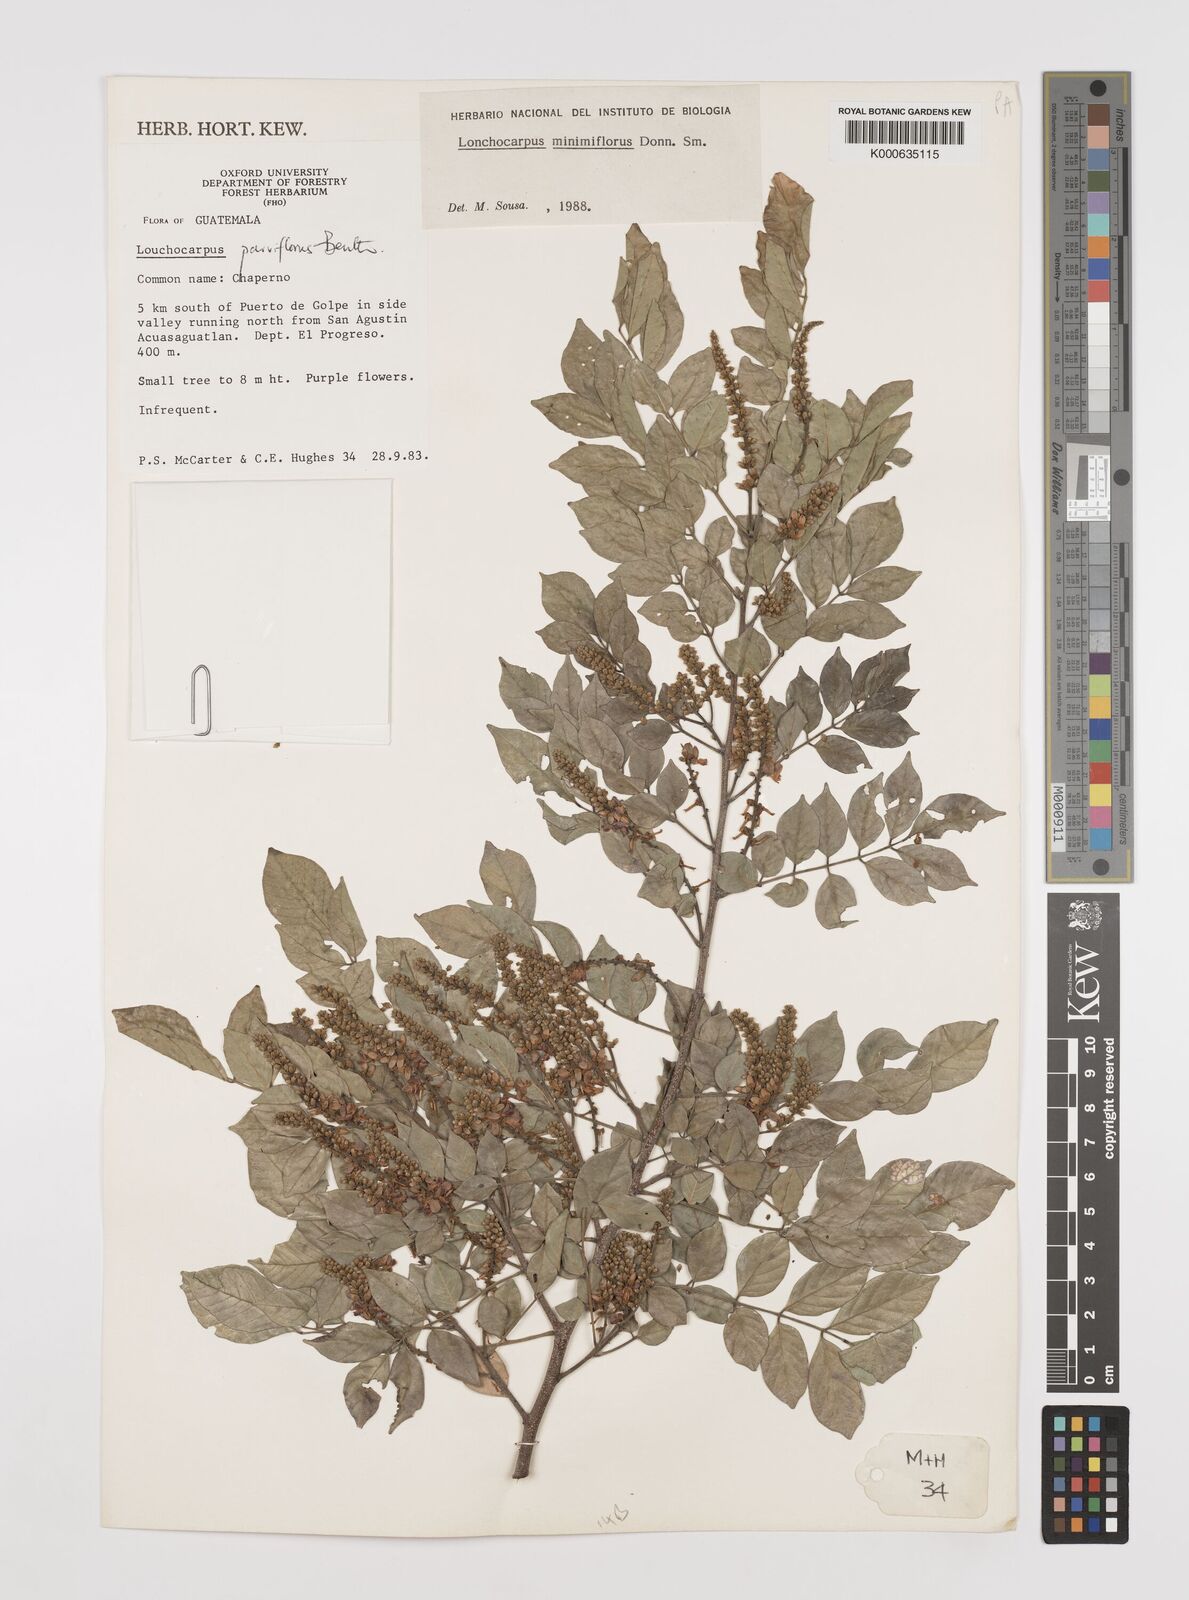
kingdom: Plantae
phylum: Tracheophyta
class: Magnoliopsida
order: Fabales
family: Fabaceae
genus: Lonchocarpus
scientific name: Lonchocarpus minimiflorus
